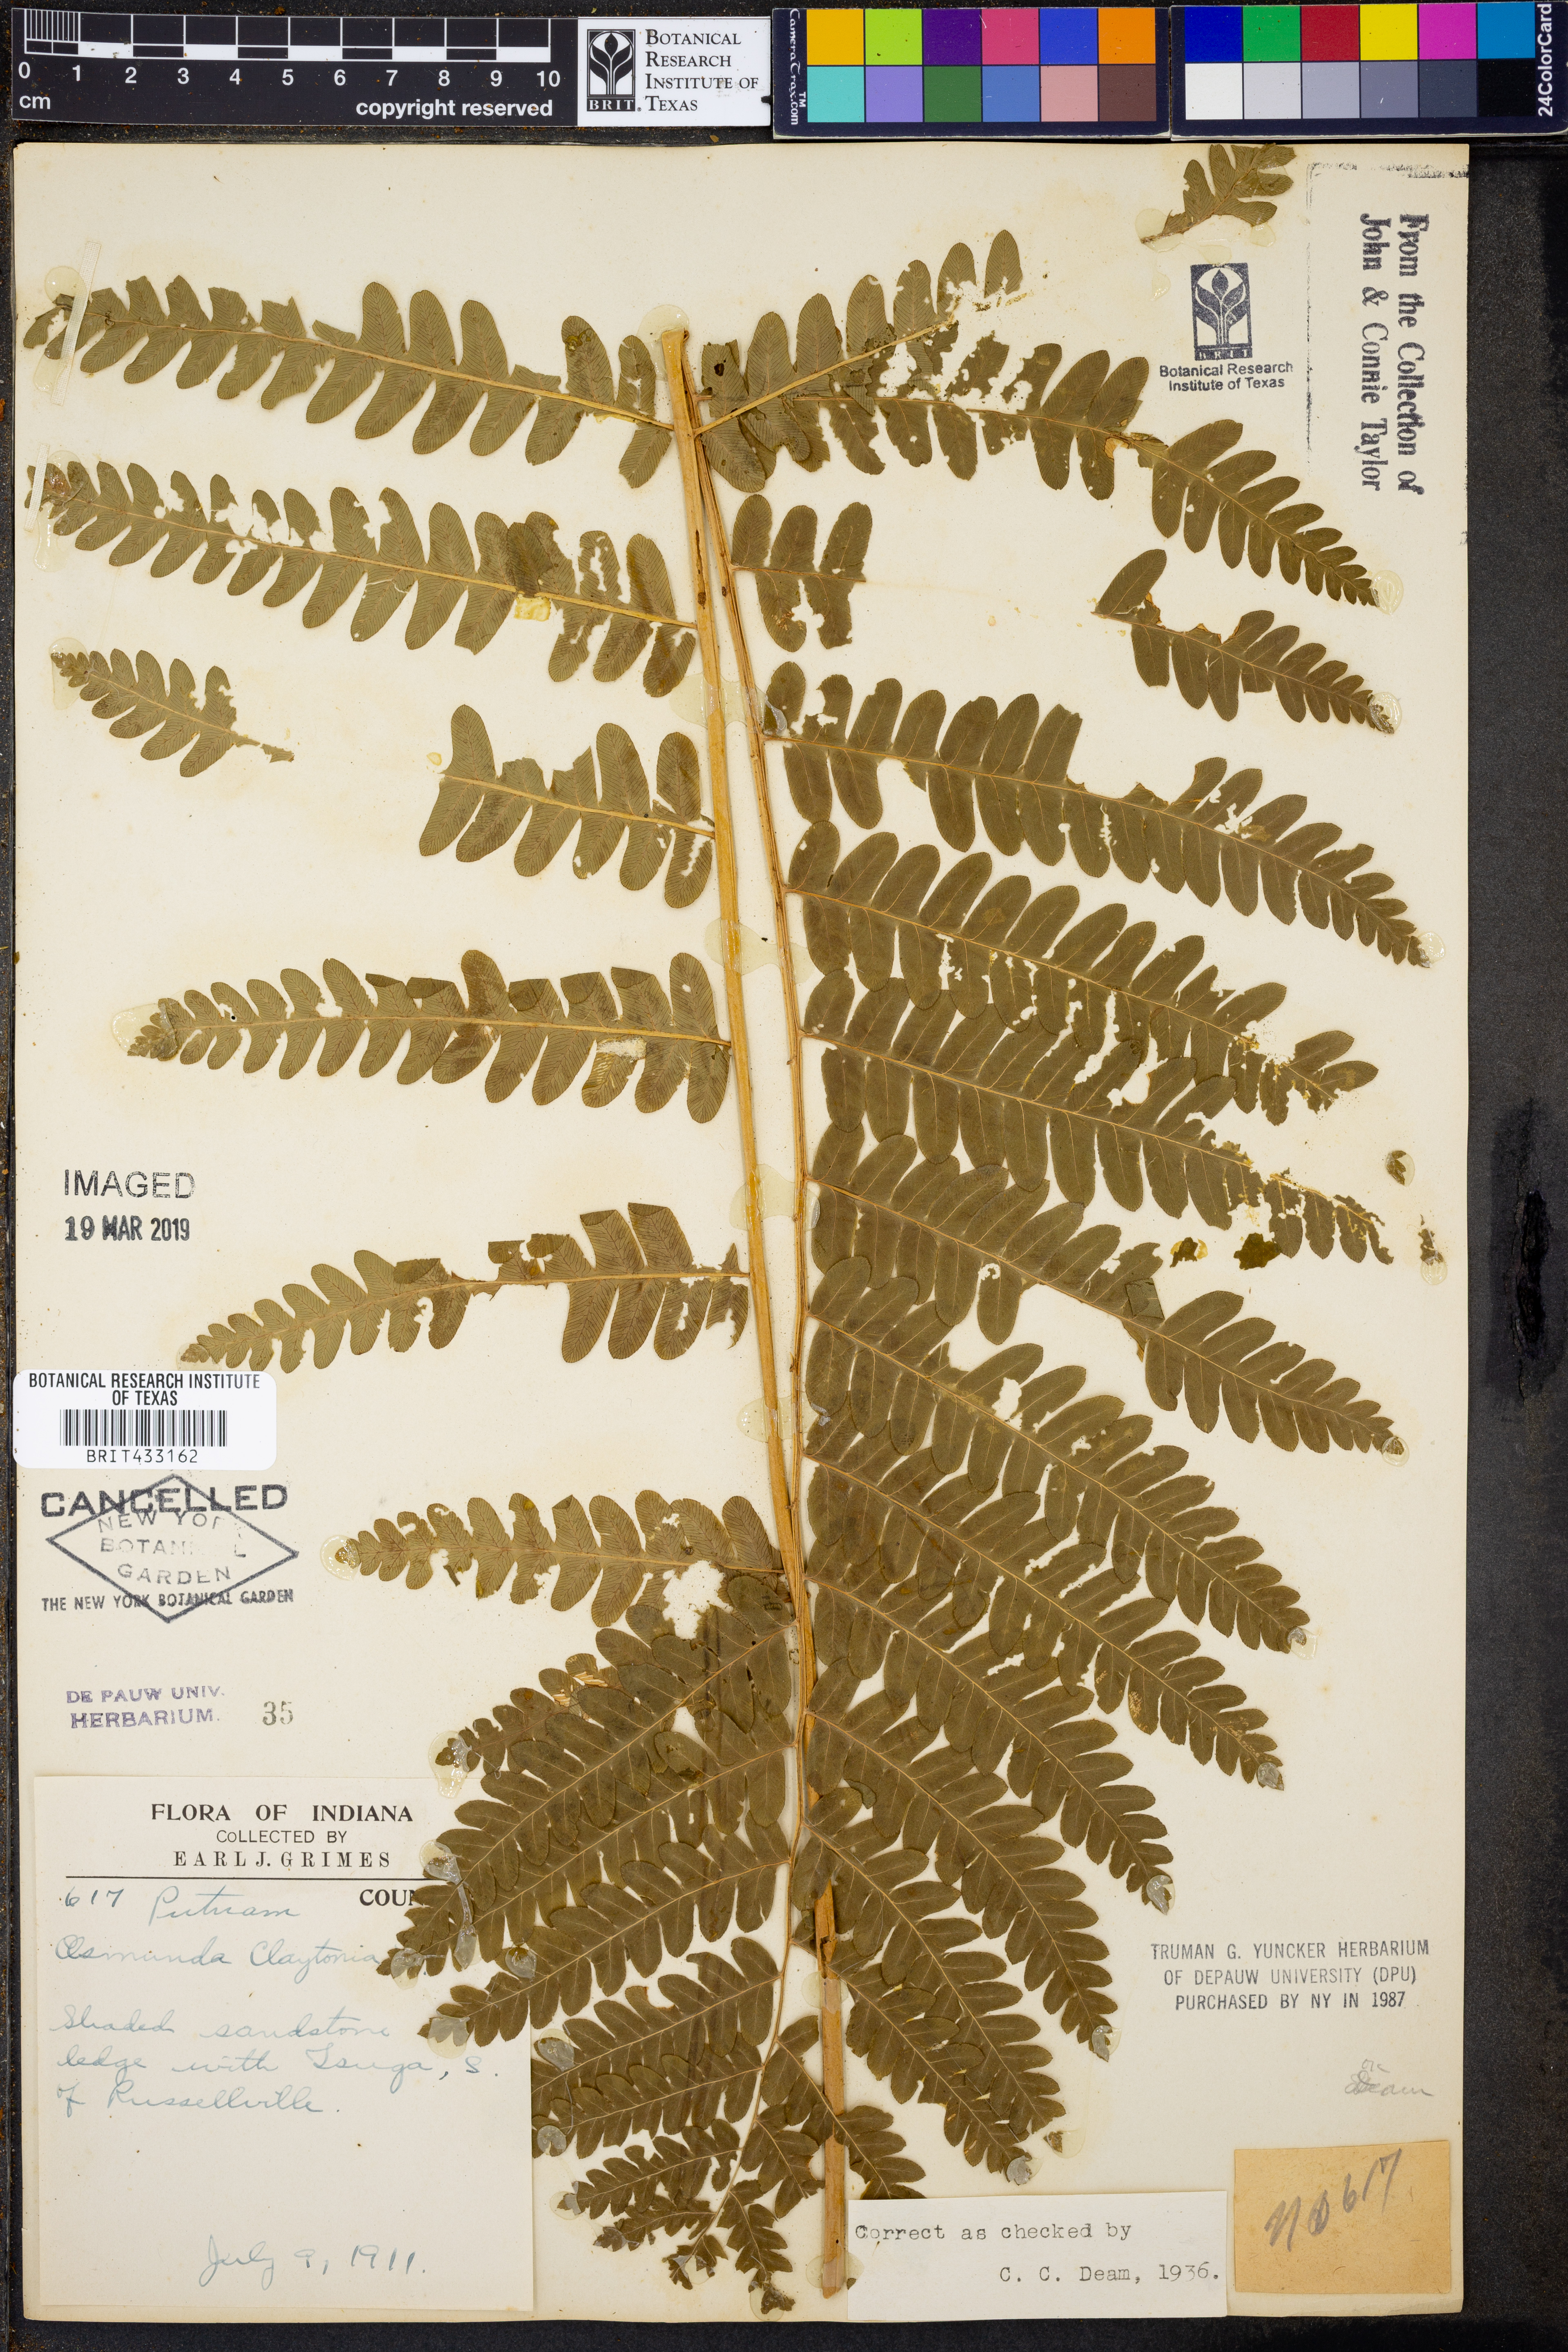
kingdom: Plantae
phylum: Tracheophyta
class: Polypodiopsida
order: Osmundales
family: Osmundaceae
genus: Claytosmunda
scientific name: Claytosmunda claytoniana
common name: Clayton's fern
